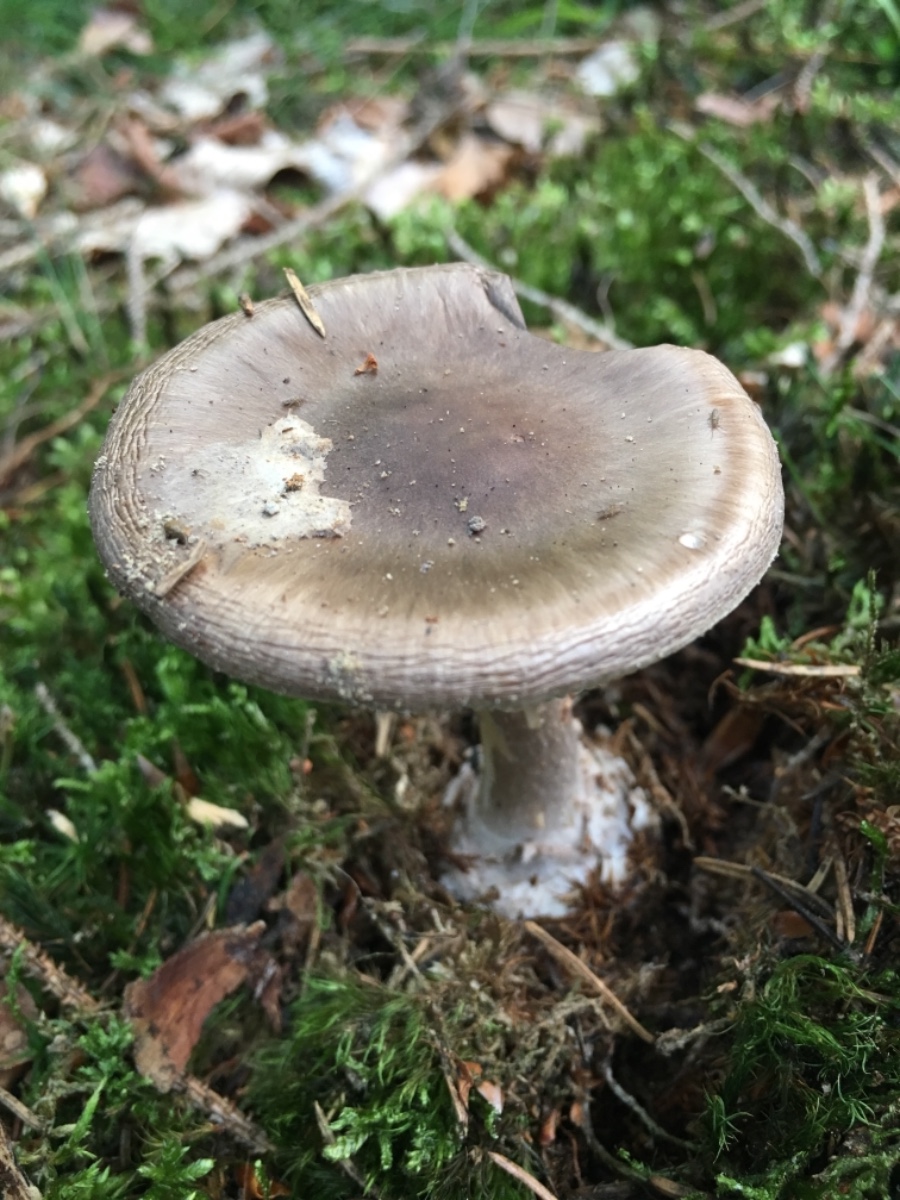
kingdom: Fungi
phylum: Basidiomycota
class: Agaricomycetes
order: Agaricales
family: Amanitaceae
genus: Amanita
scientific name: Amanita porphyria
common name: porfyr-fluesvamp
